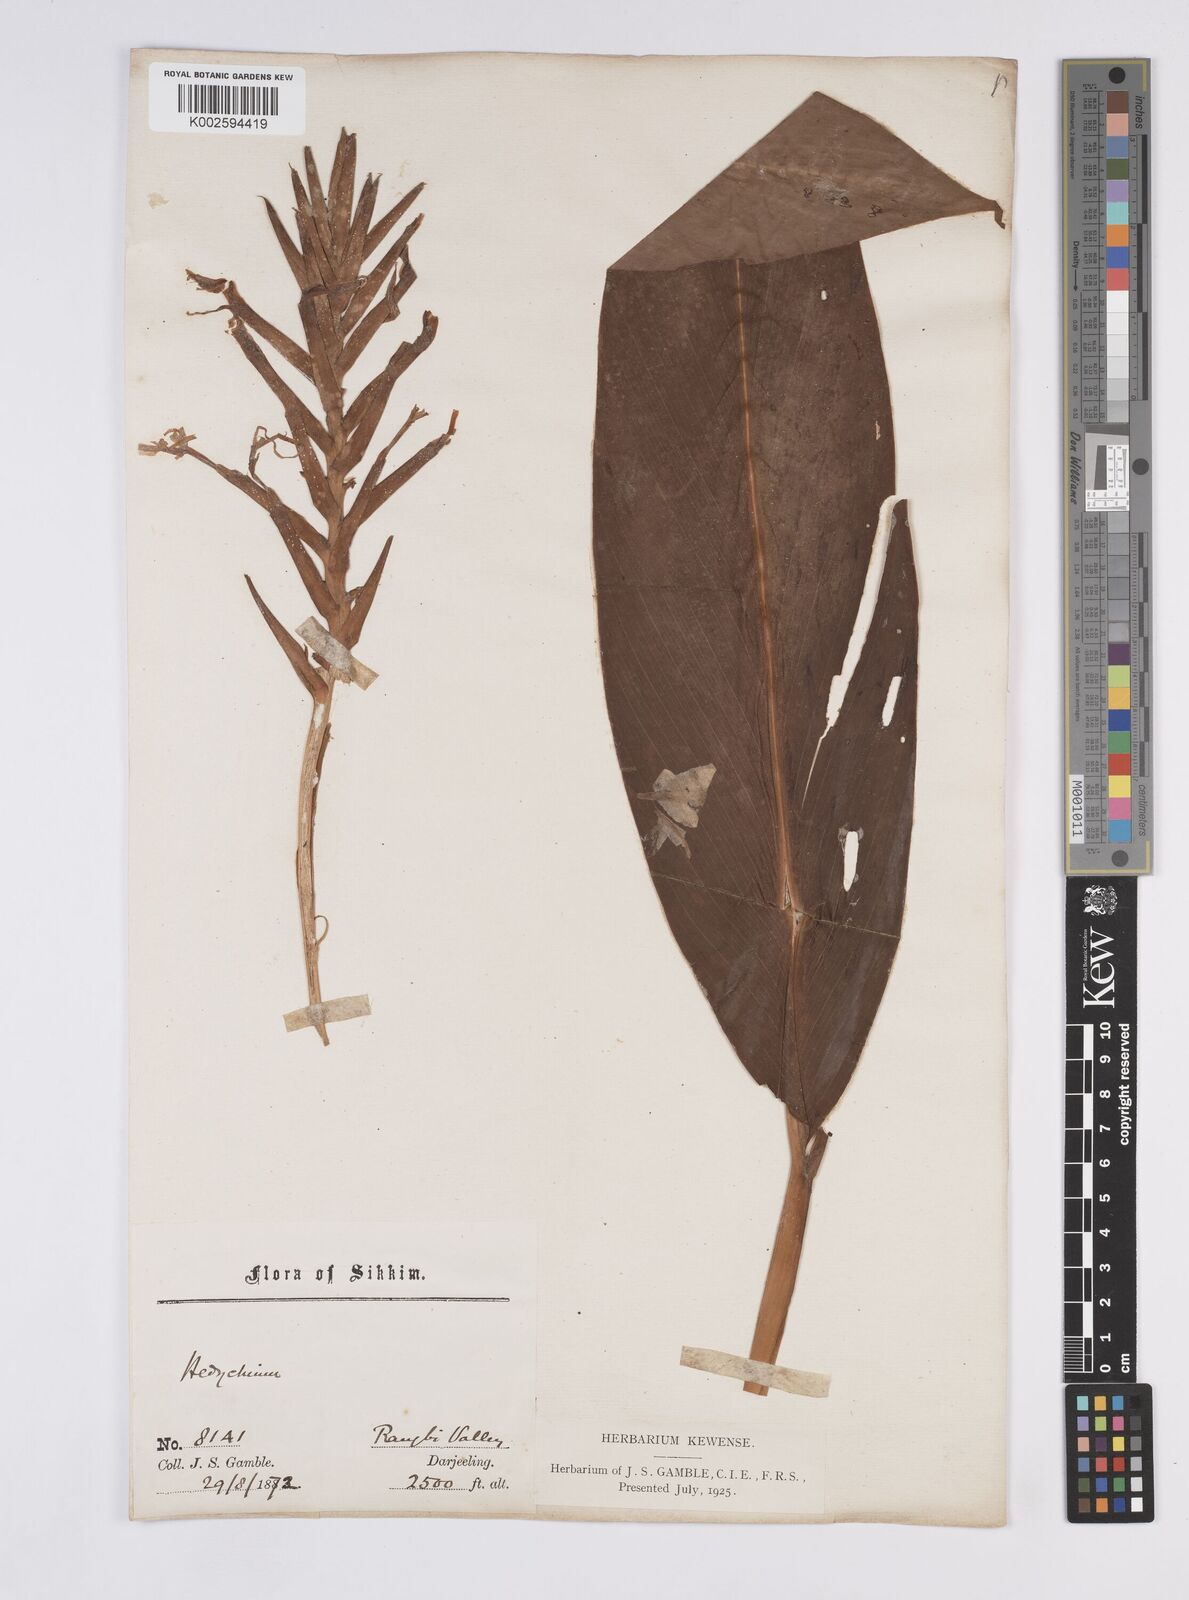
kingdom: Plantae
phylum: Tracheophyta
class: Liliopsida
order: Zingiberales
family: Zingiberaceae
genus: Hedychium
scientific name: Hedychium spicatum
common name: Spiked ginger-lily
